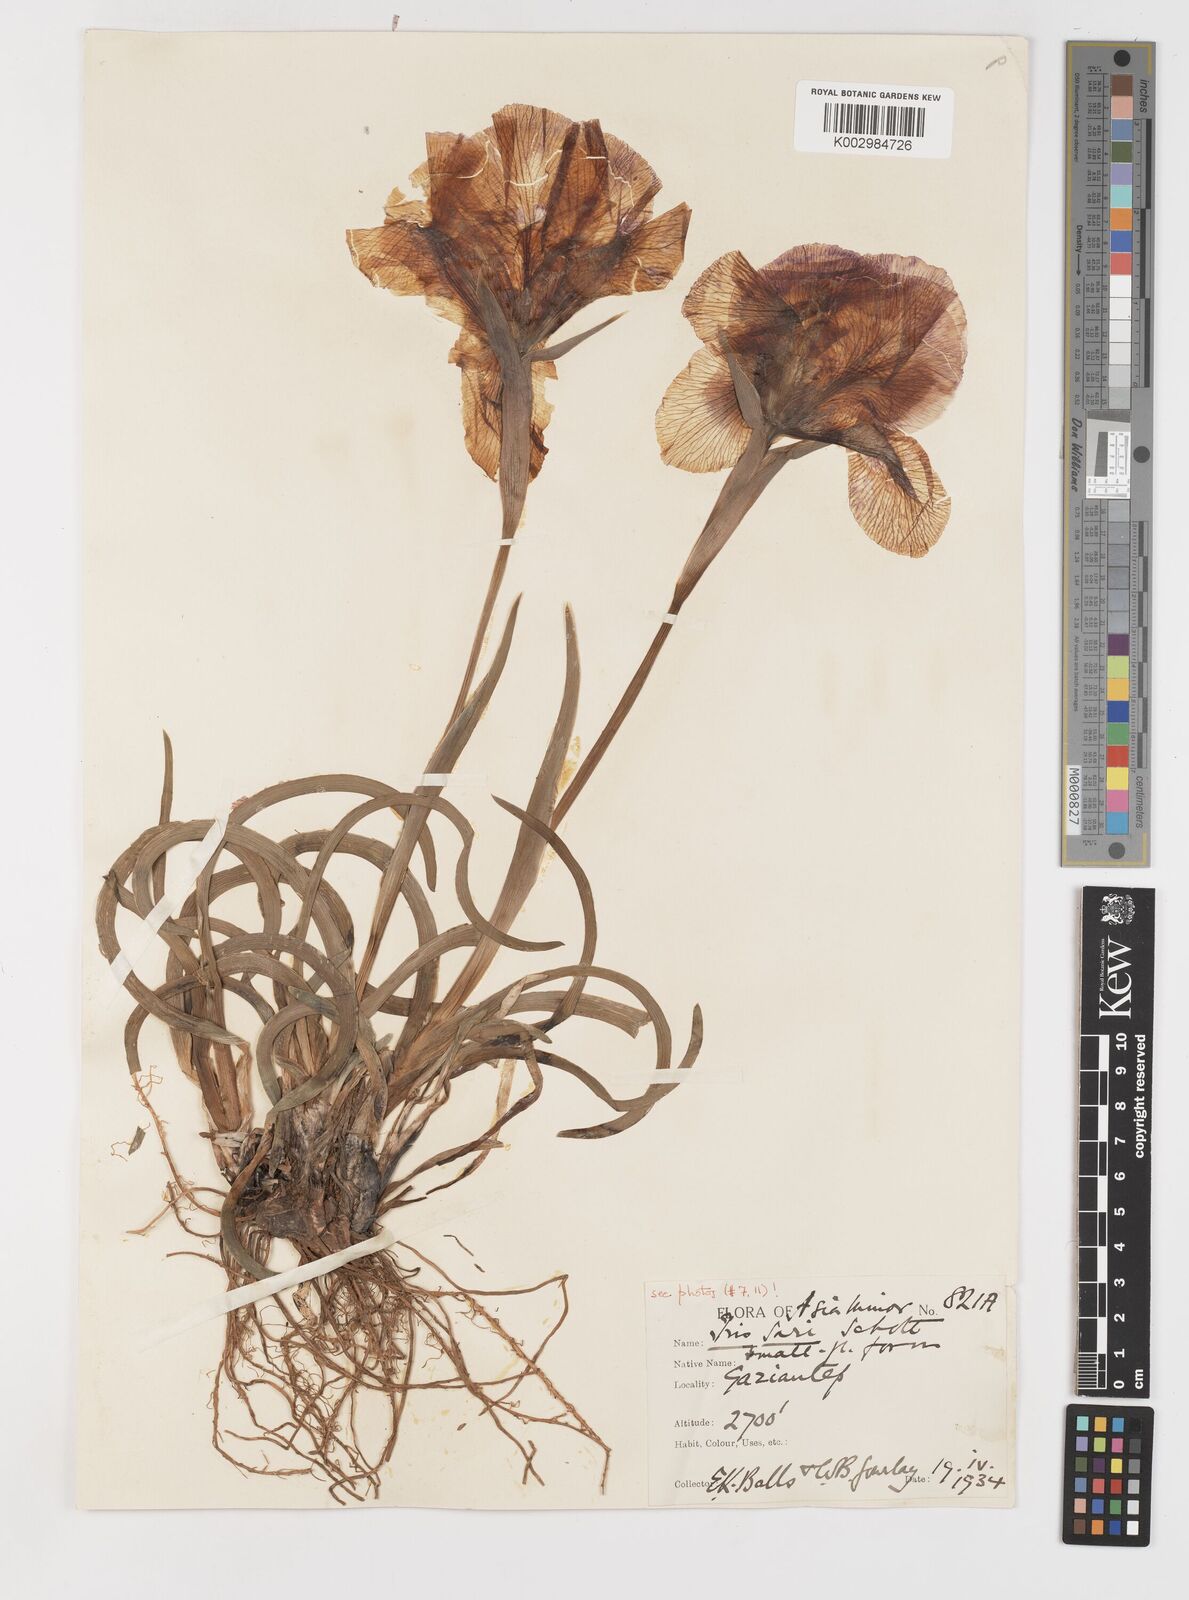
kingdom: Plantae
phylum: Tracheophyta
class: Liliopsida
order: Asparagales
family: Iridaceae
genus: Iris
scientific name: Iris sari
